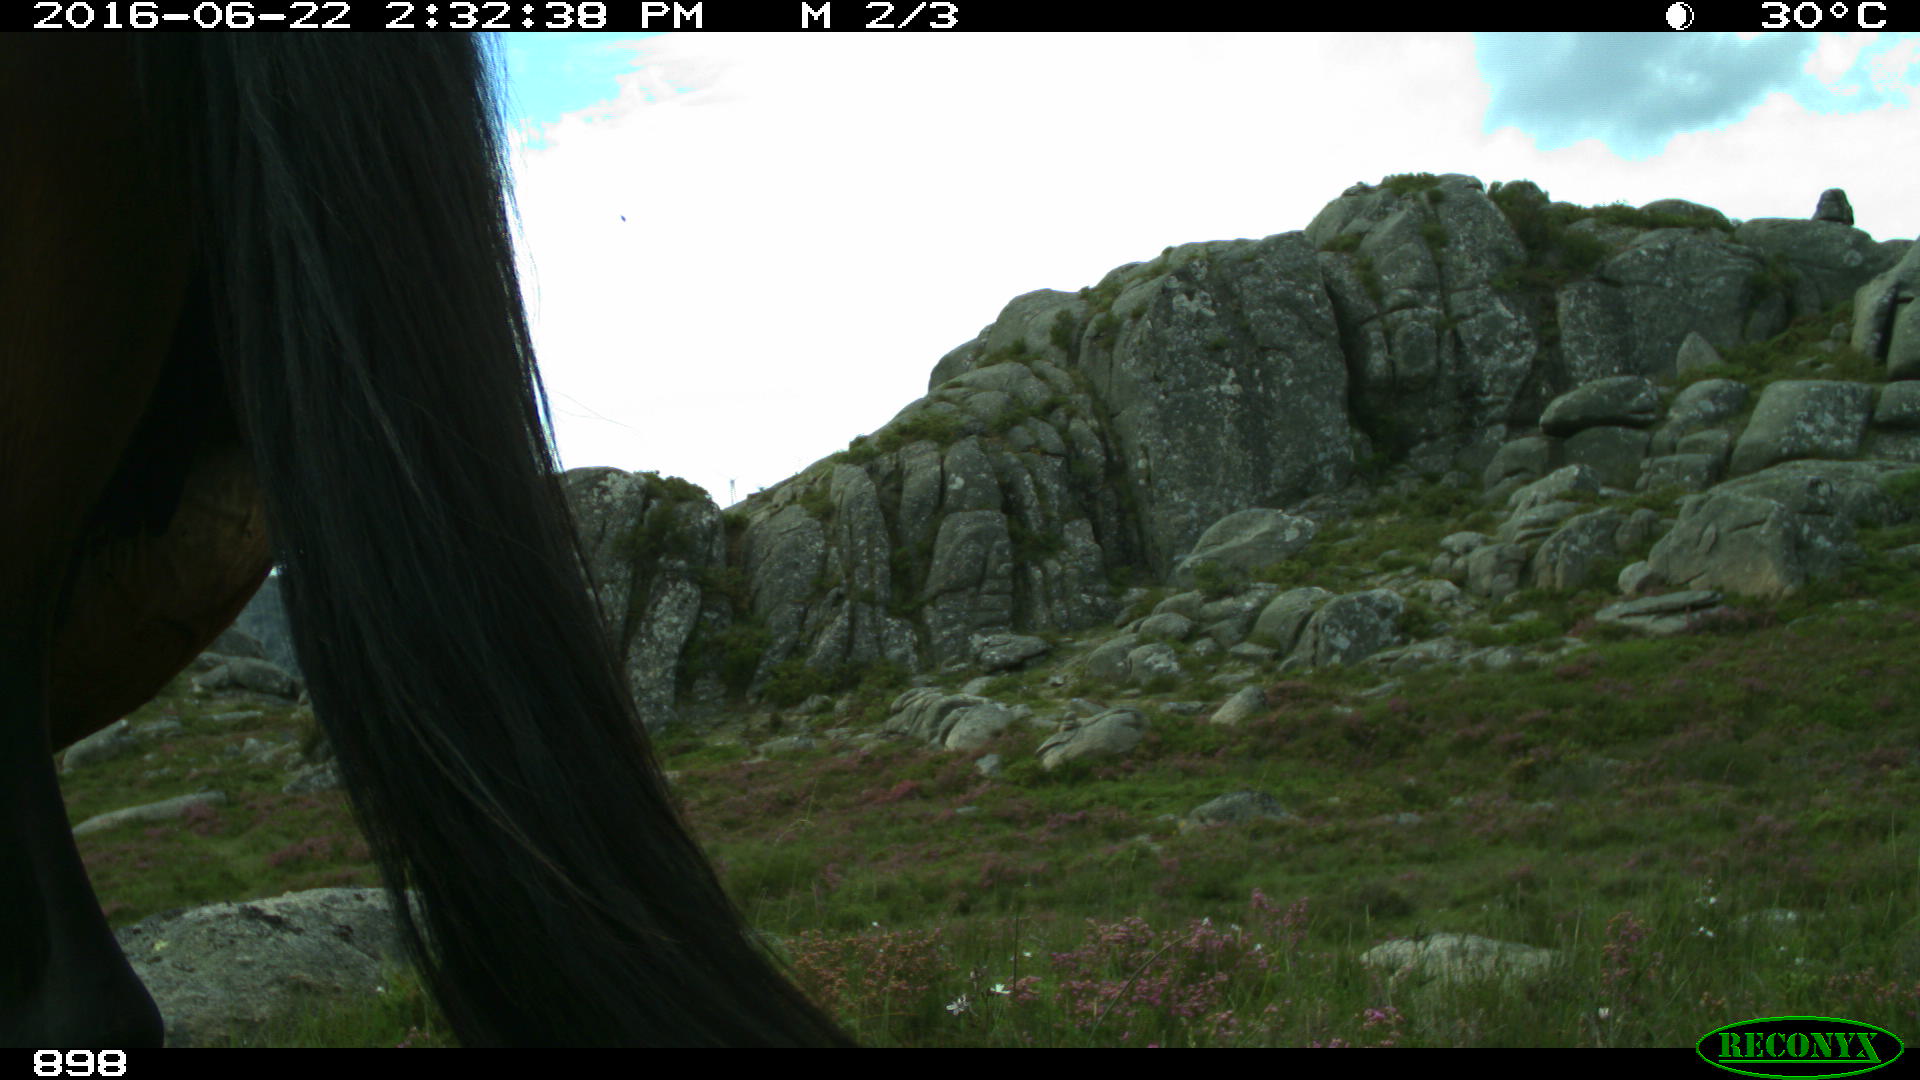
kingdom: Animalia
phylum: Chordata
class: Mammalia
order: Perissodactyla
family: Equidae
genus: Equus
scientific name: Equus caballus
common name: Horse
